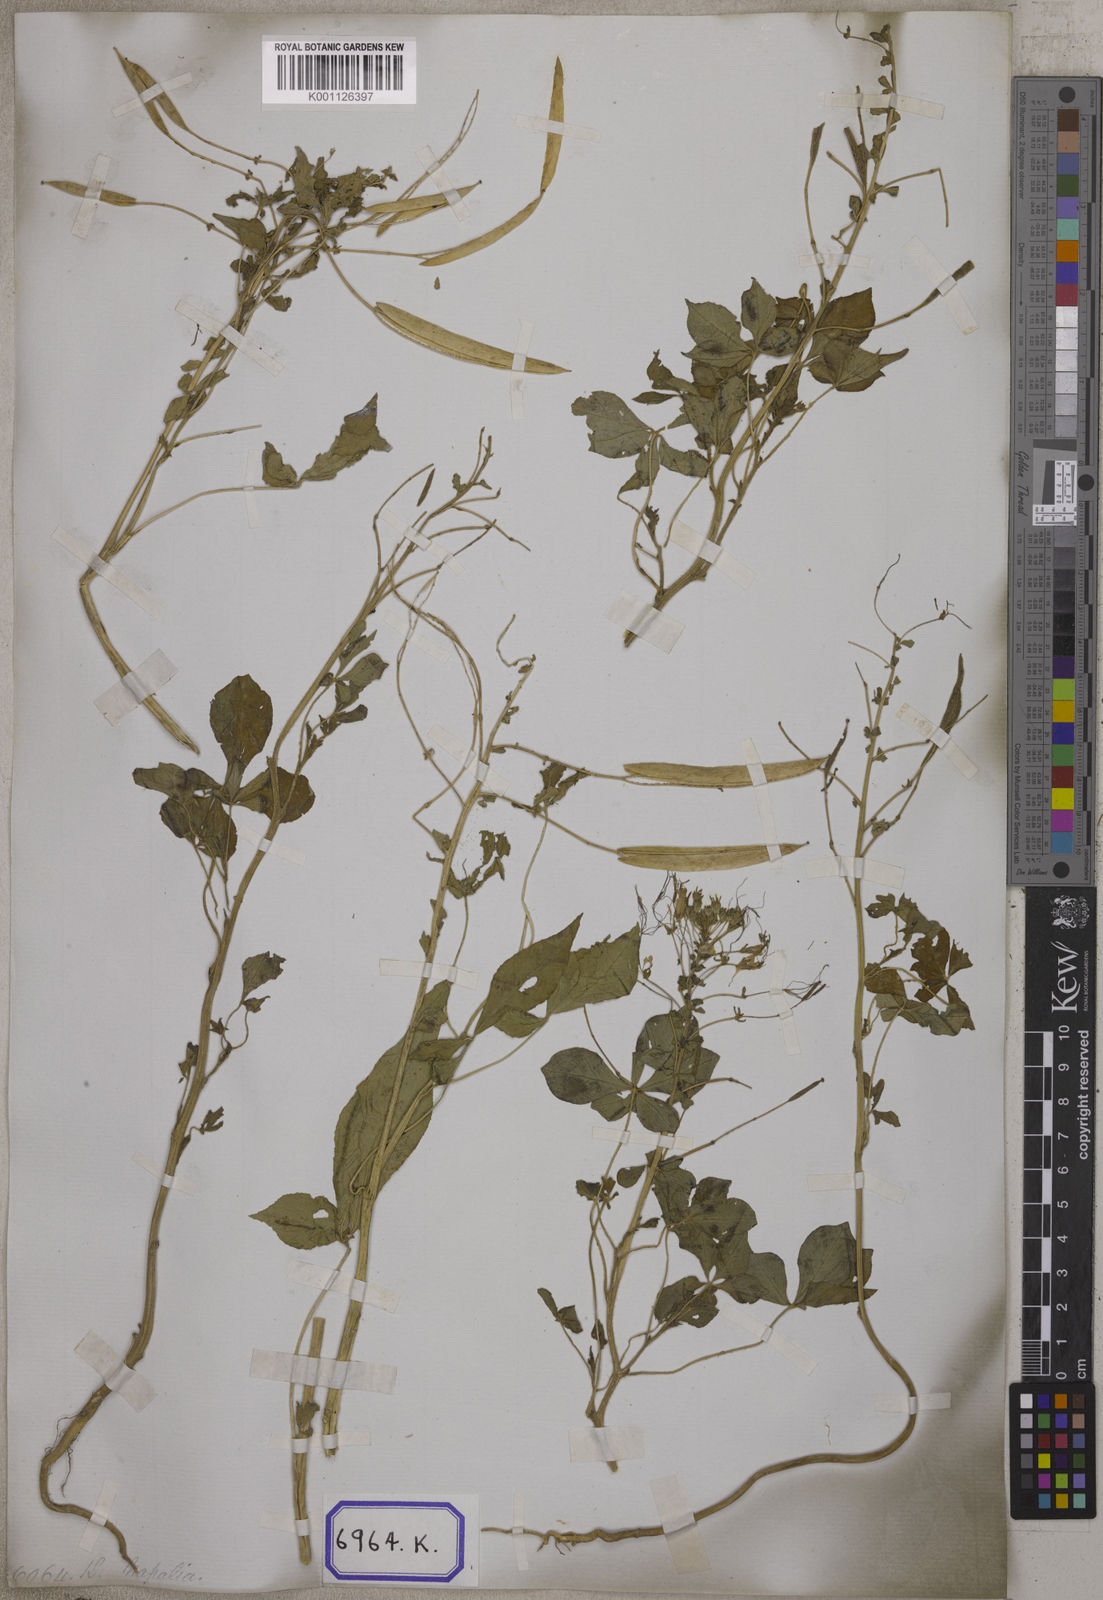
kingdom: Plantae
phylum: Tracheophyta
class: Magnoliopsida
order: Brassicales
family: Cleomaceae
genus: Gynandropsis
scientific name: Gynandropsis gynandra
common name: Spiderwisp
